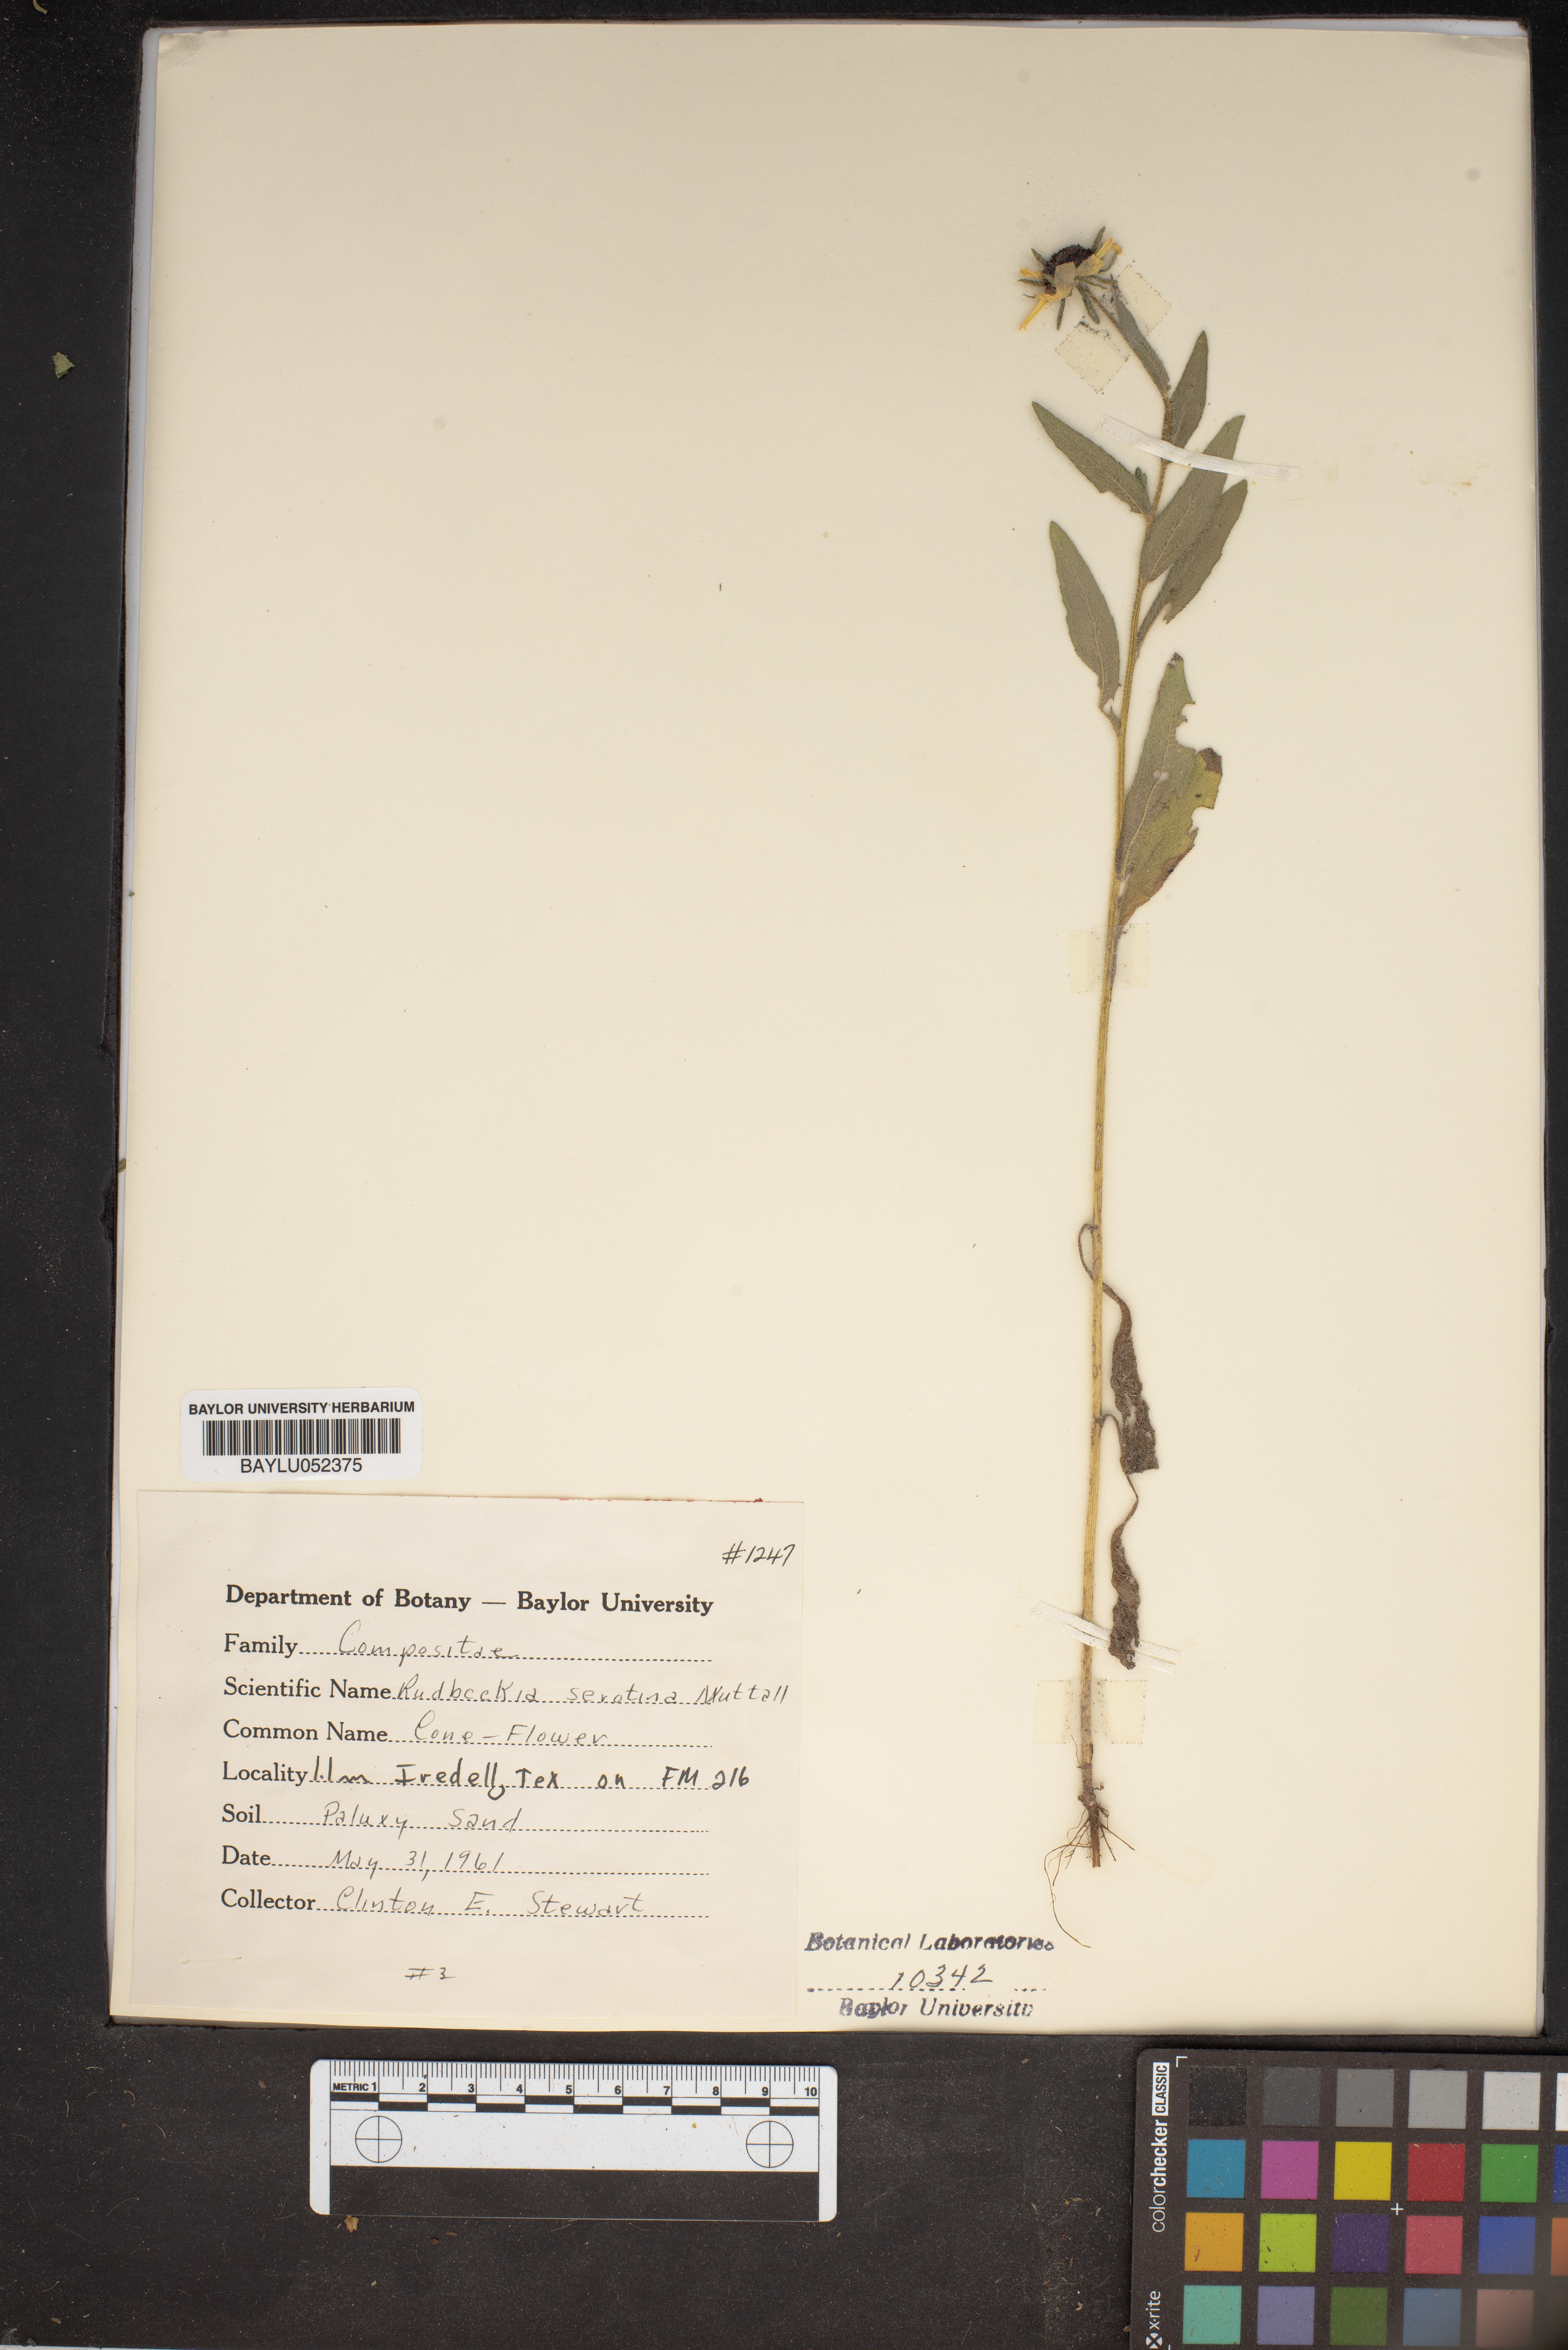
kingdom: Plantae
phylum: Tracheophyta
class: Magnoliopsida
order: Asterales
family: Asteraceae
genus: Echinacea
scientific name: Echinacea purpurea
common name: Broad-leaved purple coneflower
